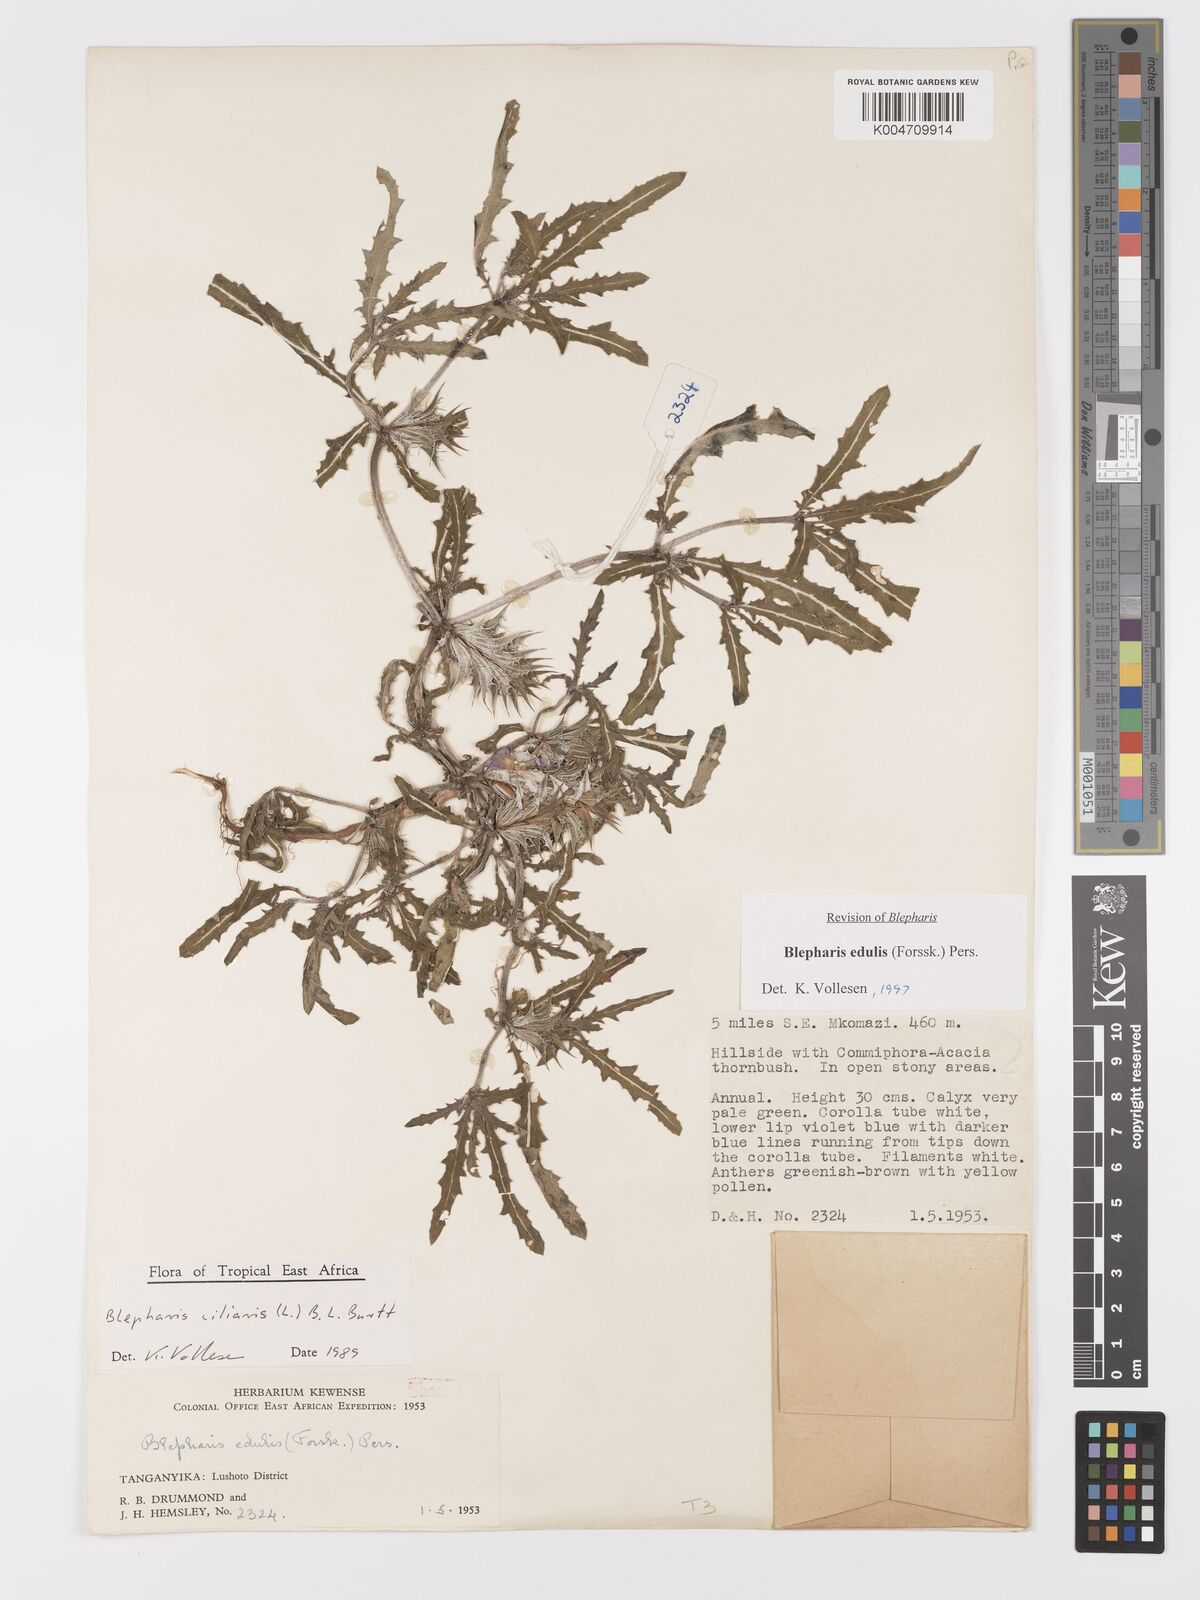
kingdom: Plantae
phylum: Tracheophyta
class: Magnoliopsida
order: Lamiales
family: Acanthaceae
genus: Blepharis
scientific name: Blepharis edulis
